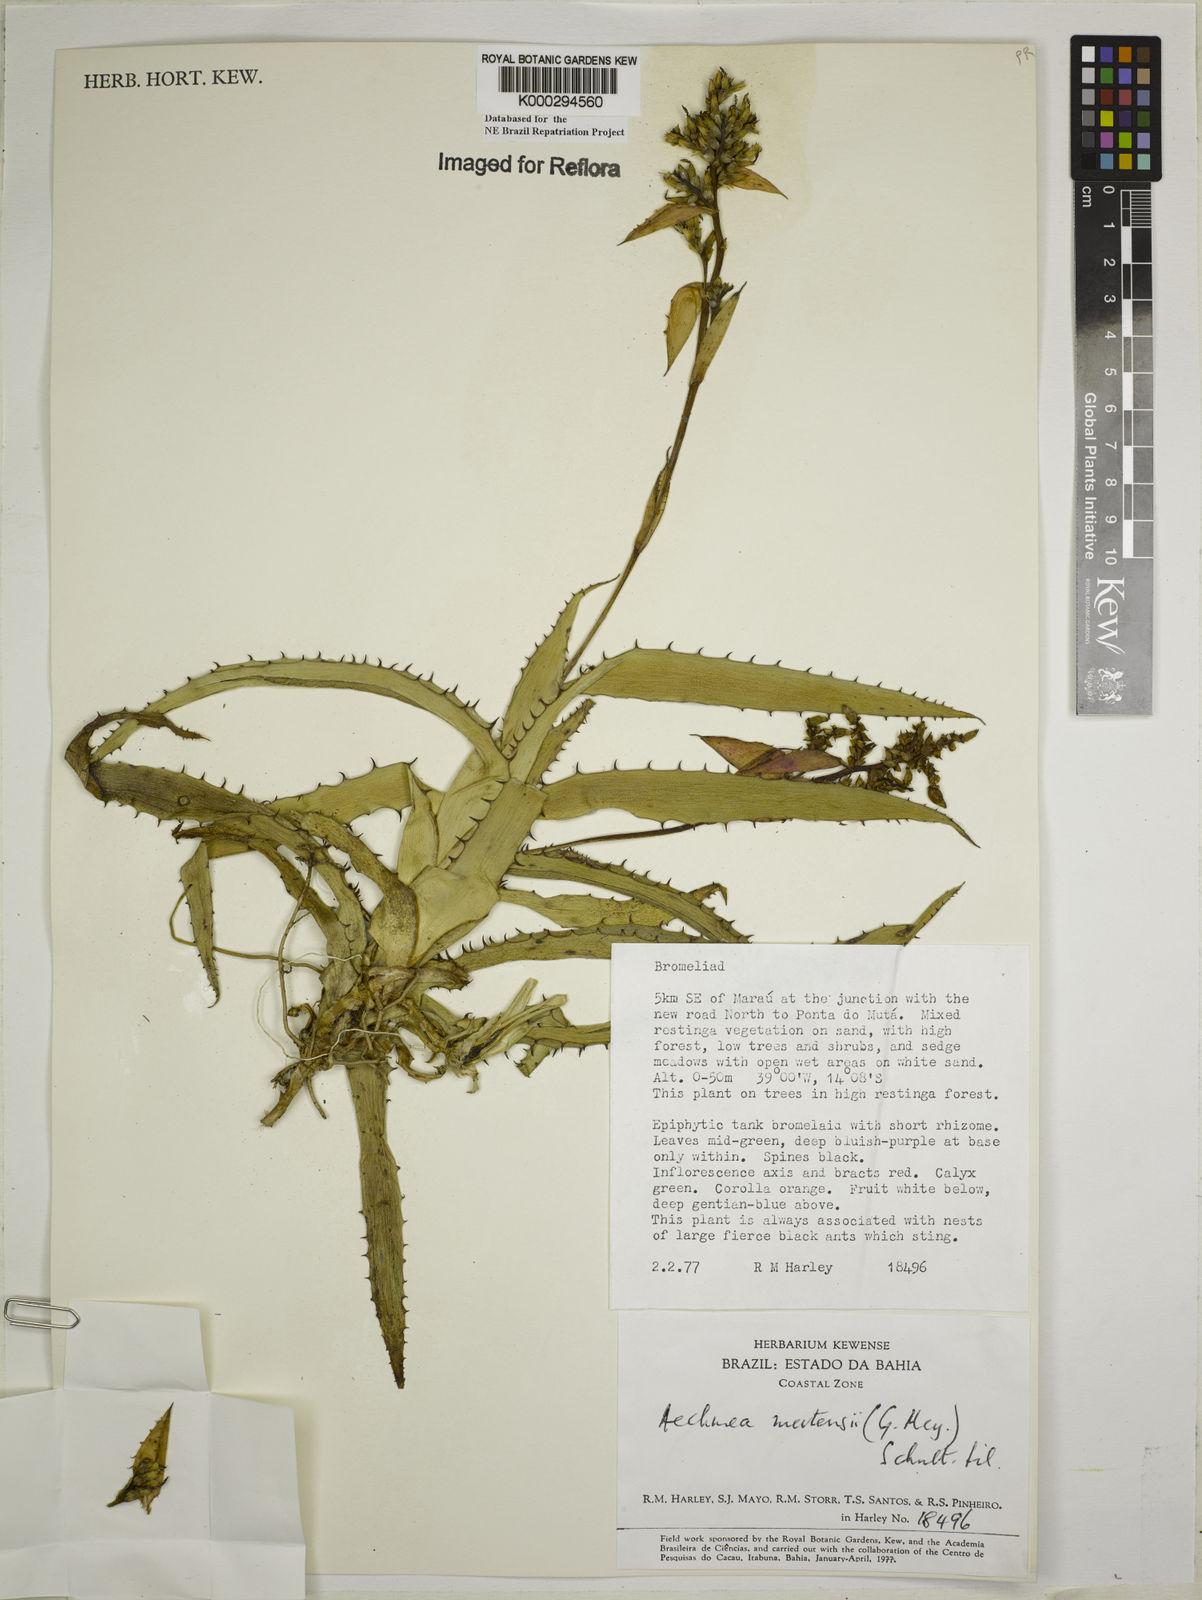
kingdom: Plantae
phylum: Tracheophyta
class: Liliopsida
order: Poales
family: Bromeliaceae
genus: Aechmea
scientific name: Aechmea mertensii
